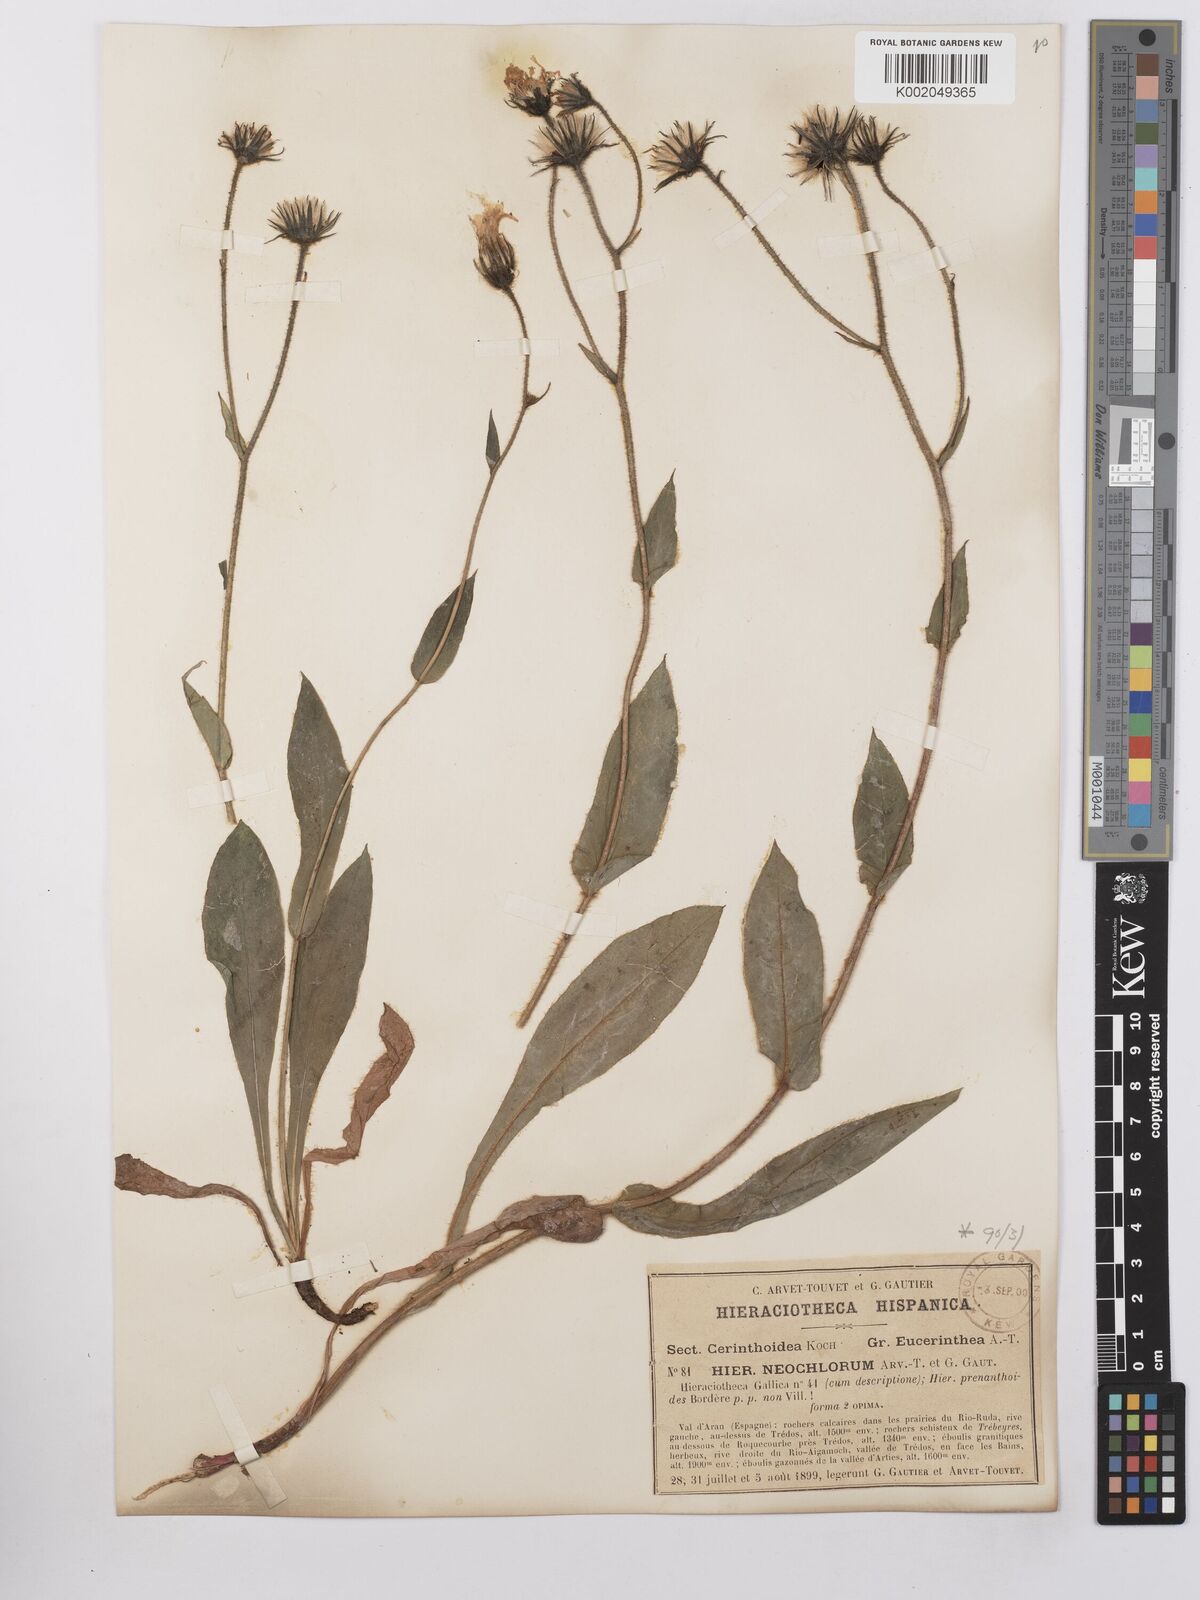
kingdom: Plantae
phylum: Tracheophyta
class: Magnoliopsida
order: Asterales
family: Asteraceae
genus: Hieracium
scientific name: Hieracium cerinthoides
